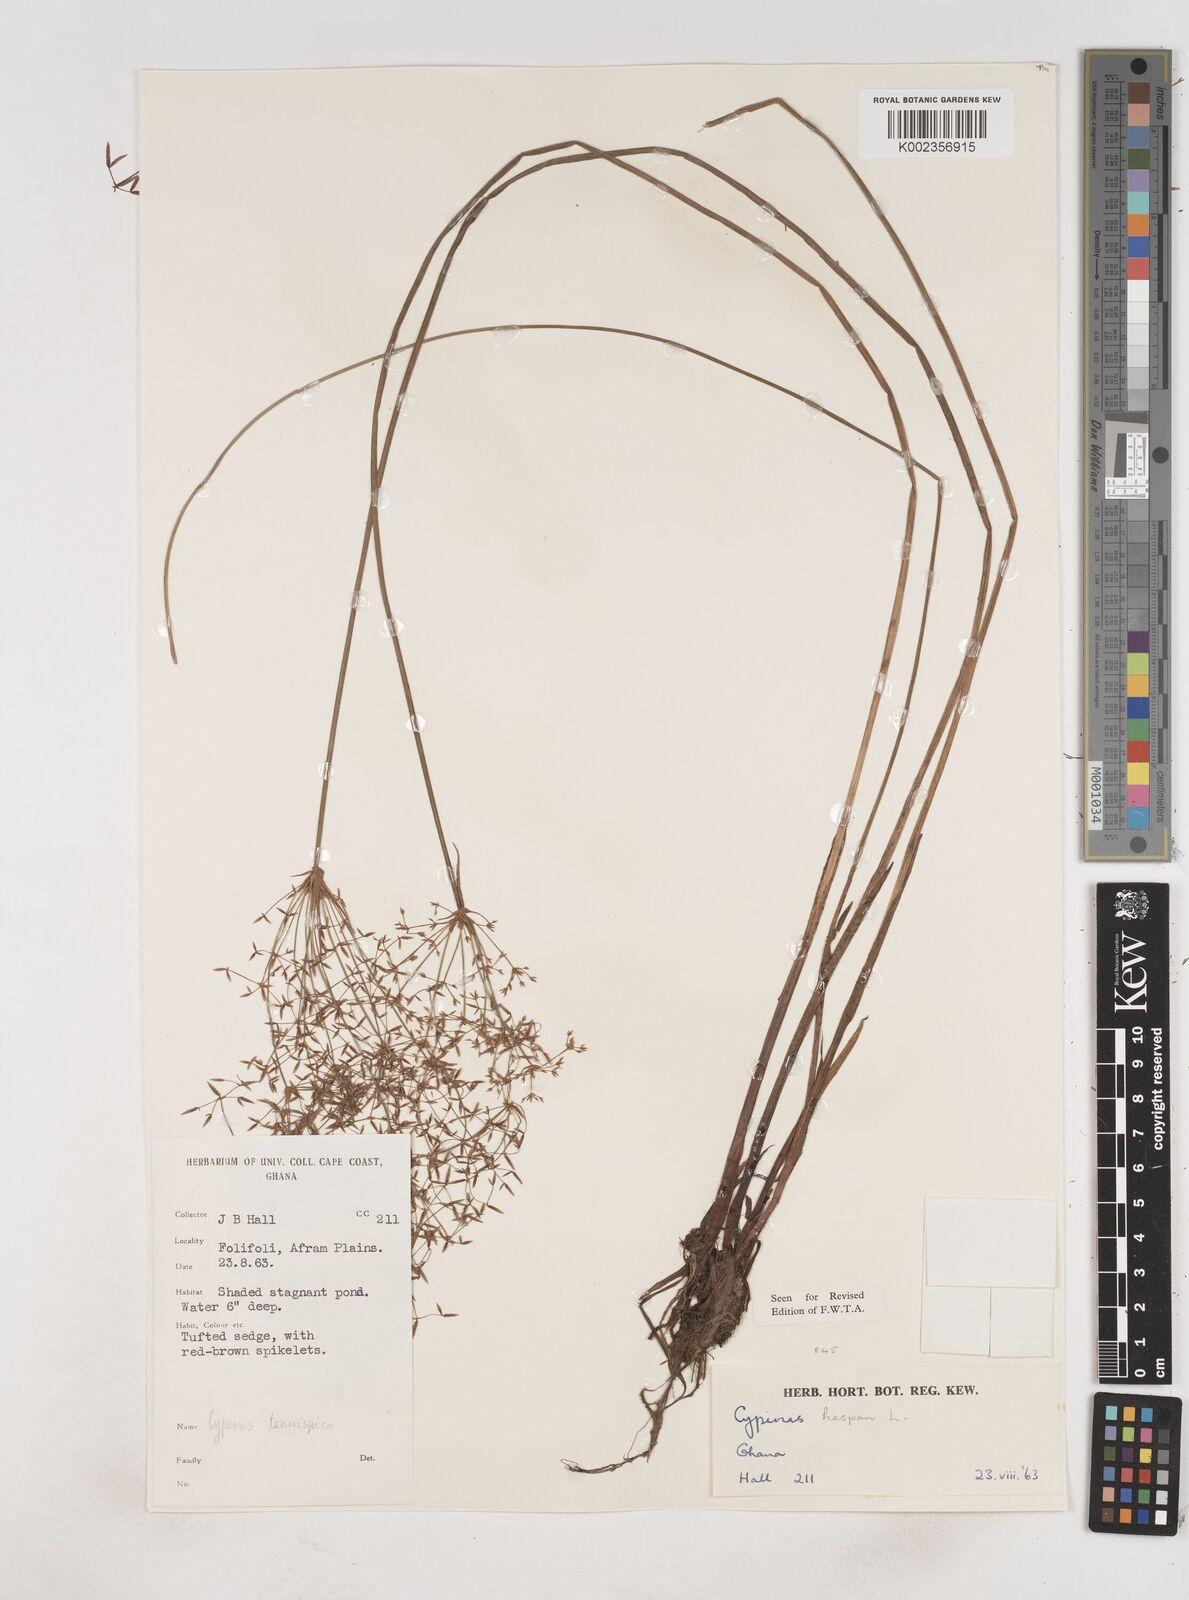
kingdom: Plantae
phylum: Tracheophyta
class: Liliopsida
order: Poales
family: Cyperaceae
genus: Cyperus
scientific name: Cyperus haspan
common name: Haspan flatsedge
